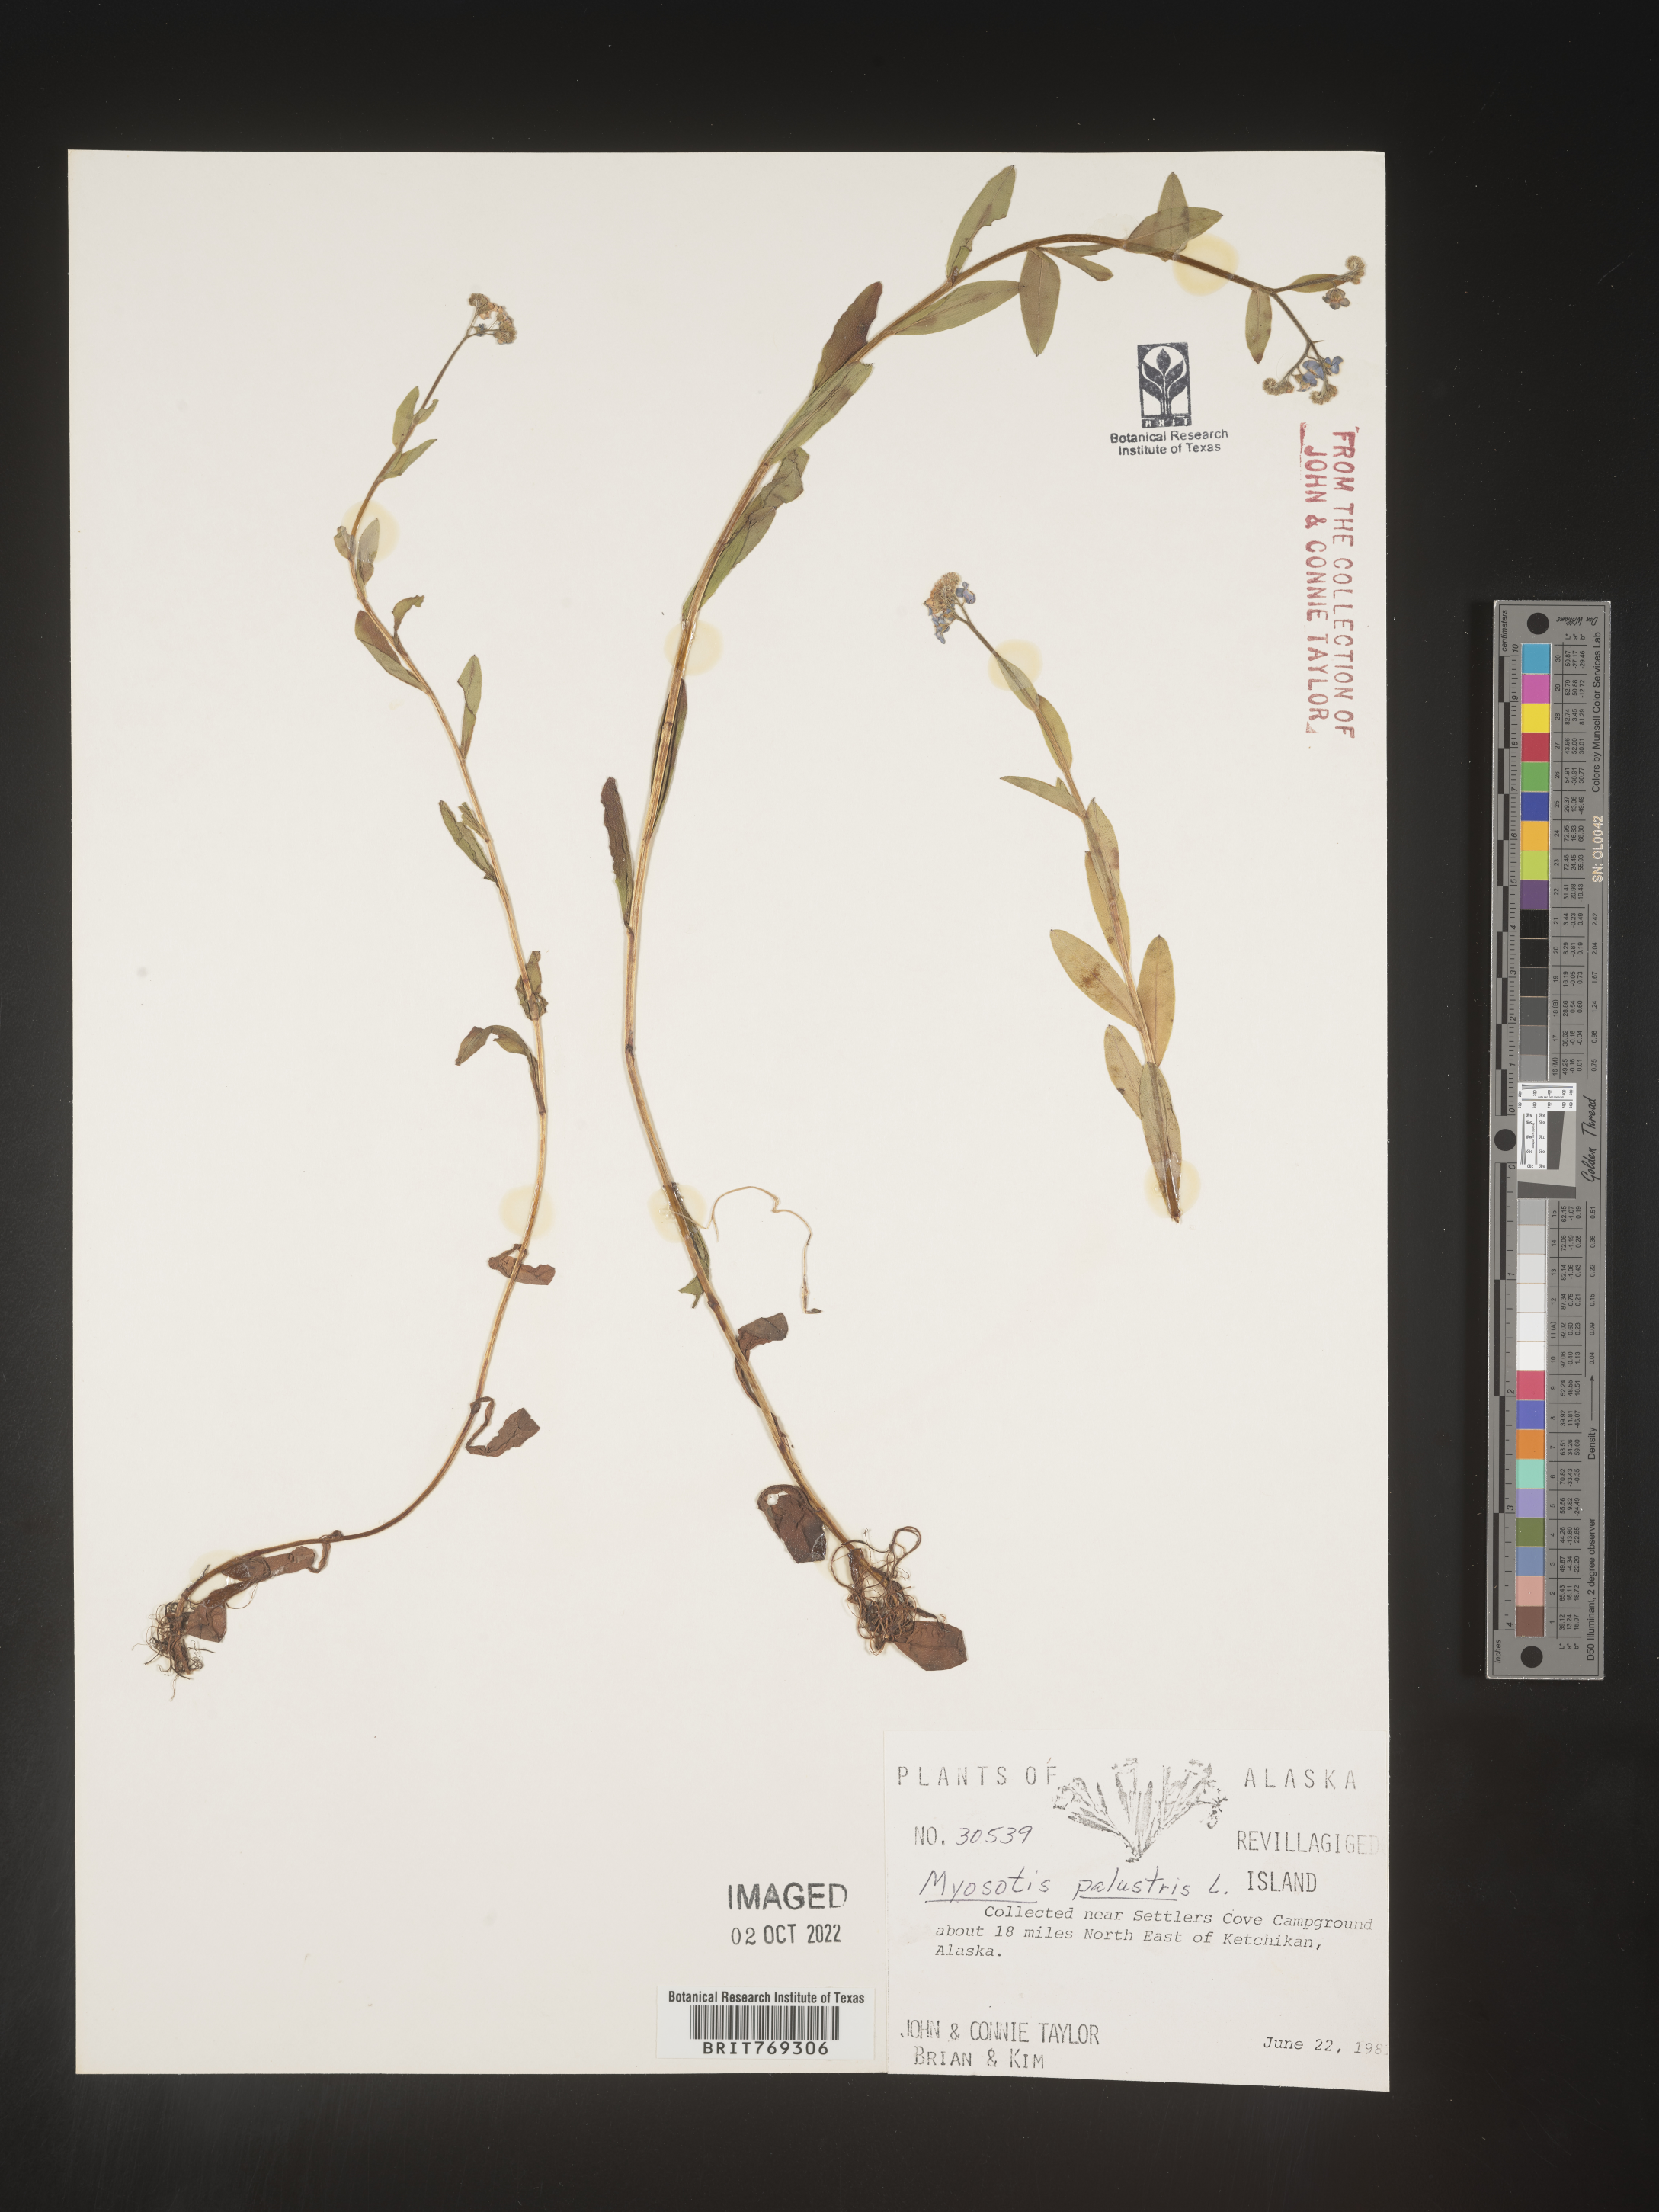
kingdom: Plantae
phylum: Tracheophyta
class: Magnoliopsida
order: Boraginales
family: Boraginaceae
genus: Myosotis
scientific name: Myosotis
